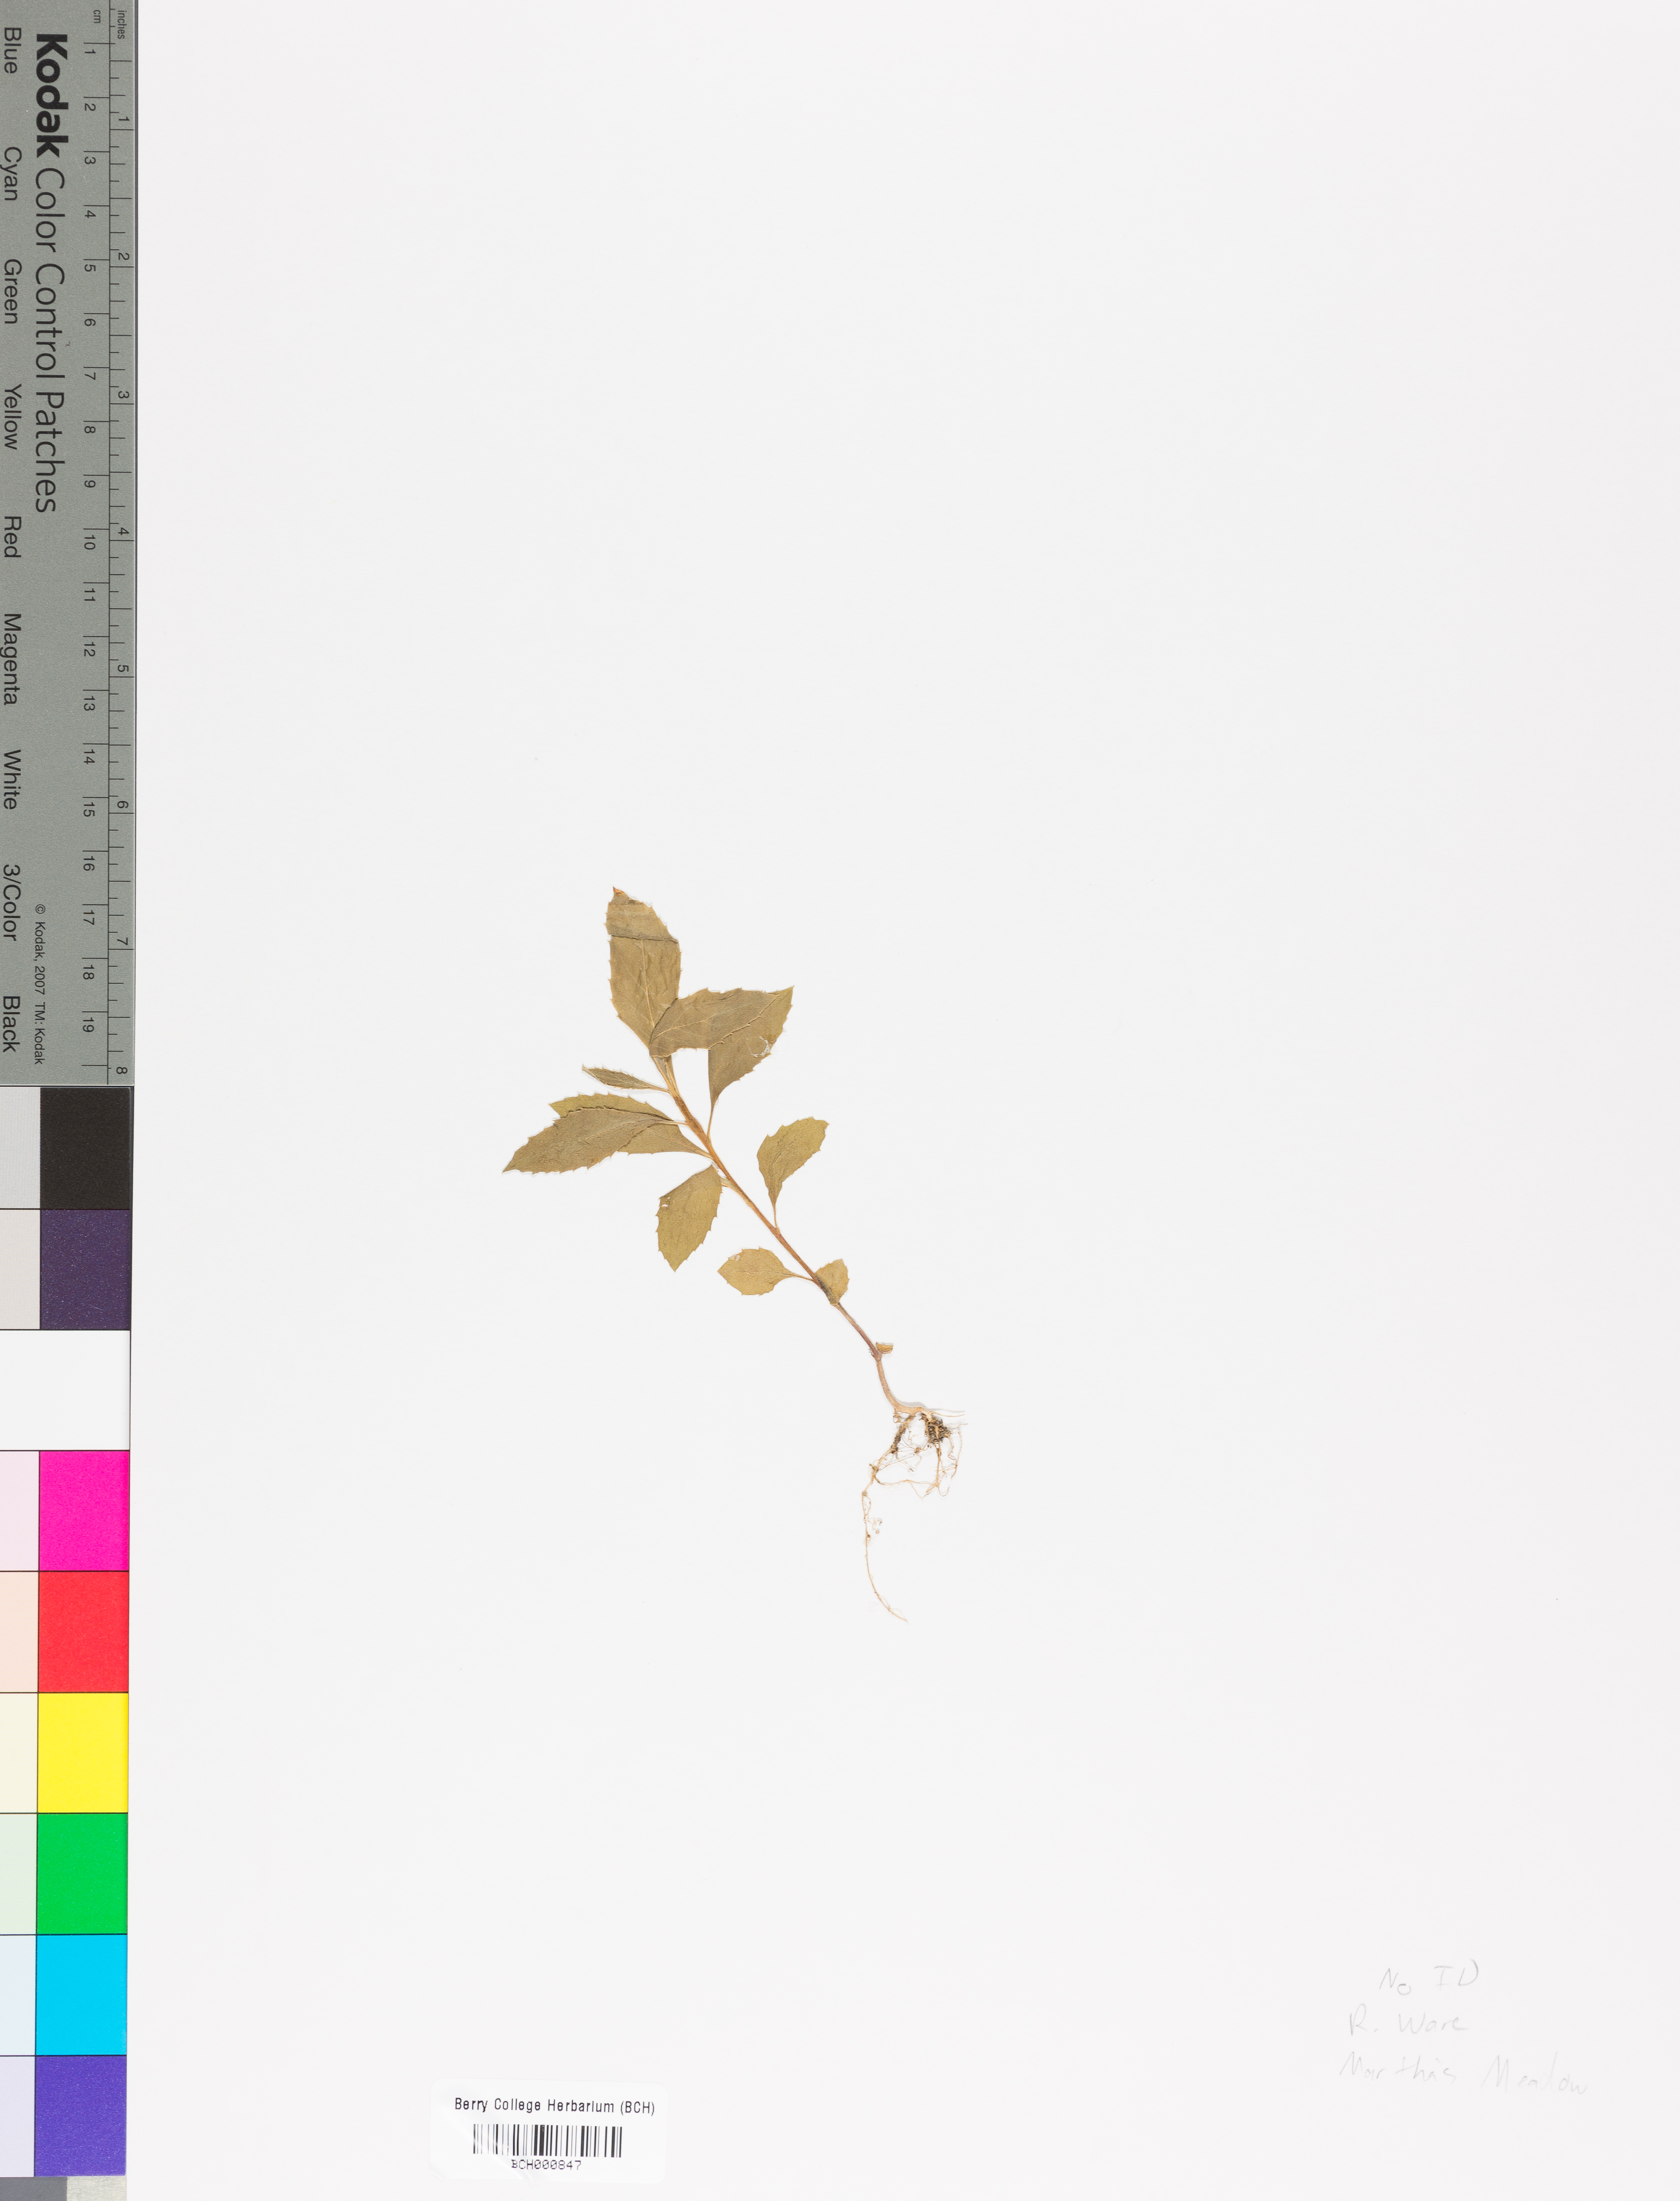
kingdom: Plantae
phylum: Tracheophyta
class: Magnoliopsida
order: Lamiales
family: Acanthaceae
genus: Adhatoda
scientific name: Adhatoda
